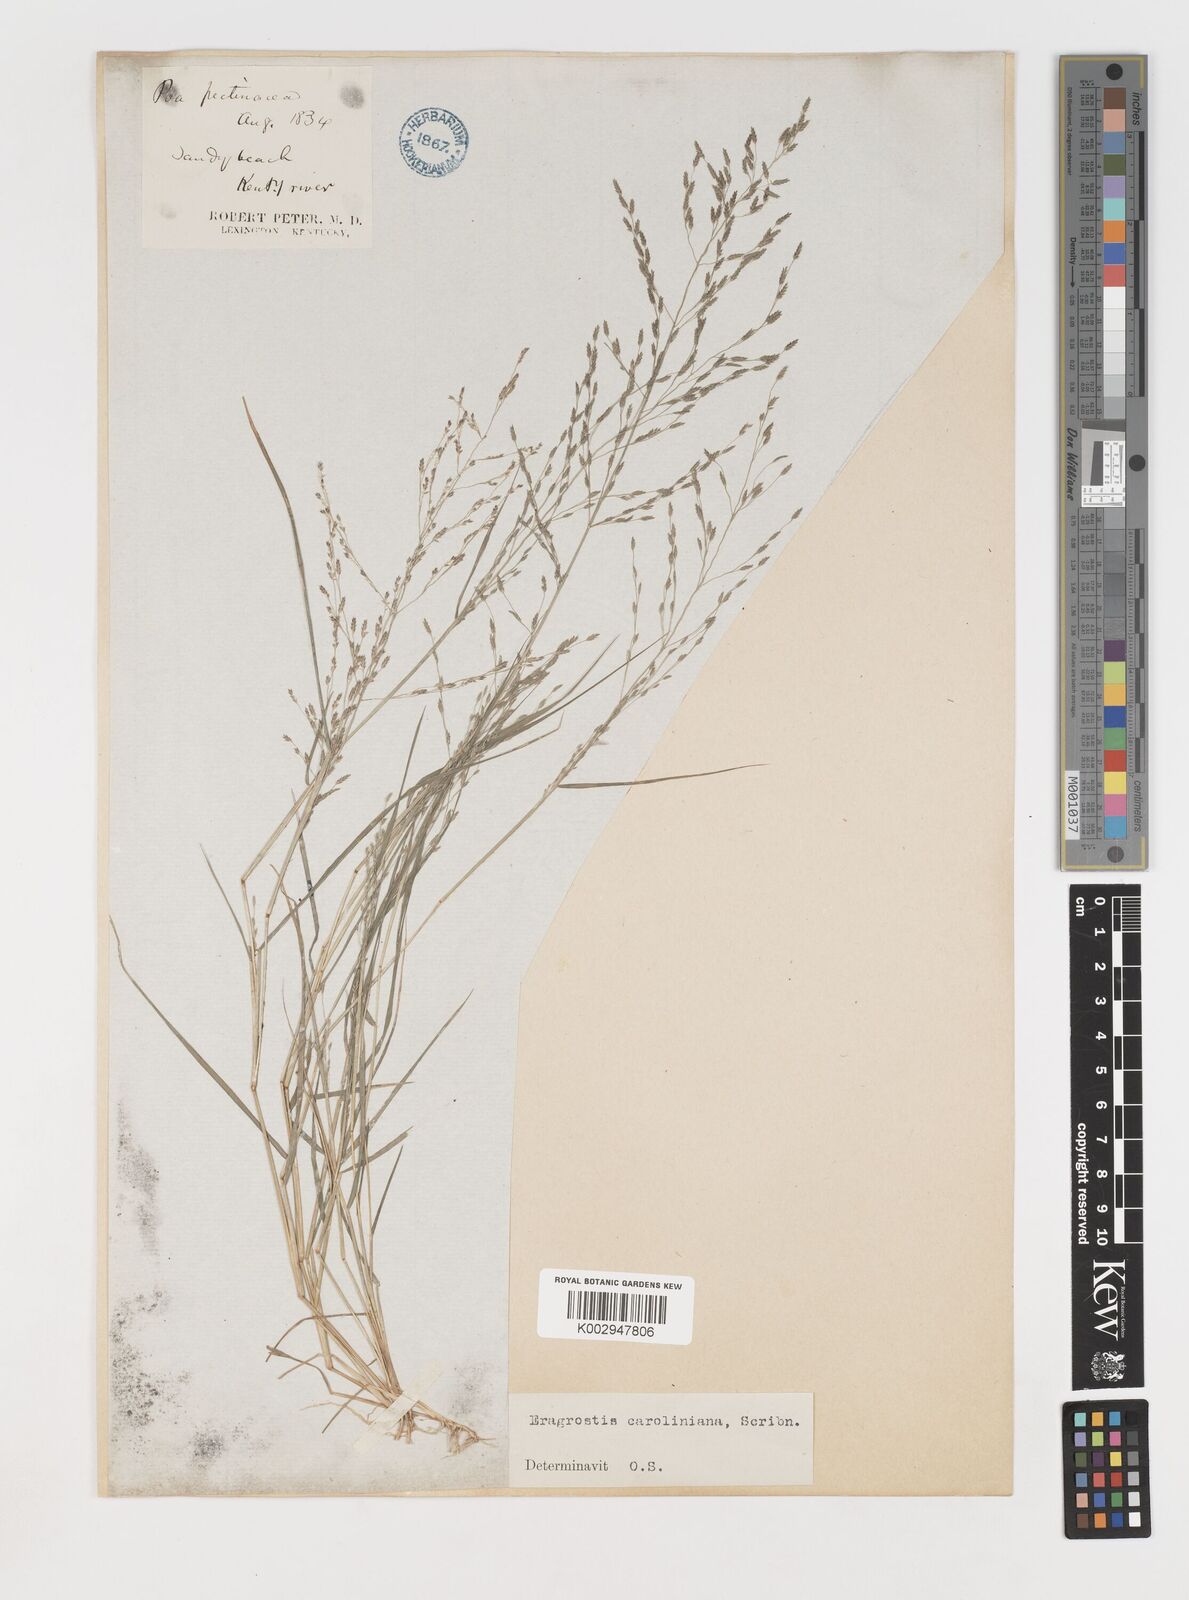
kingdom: Plantae
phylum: Tracheophyta
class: Liliopsida
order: Poales
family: Poaceae
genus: Eragrostis
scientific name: Eragrostis pectinacea
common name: Tufted lovegrass
